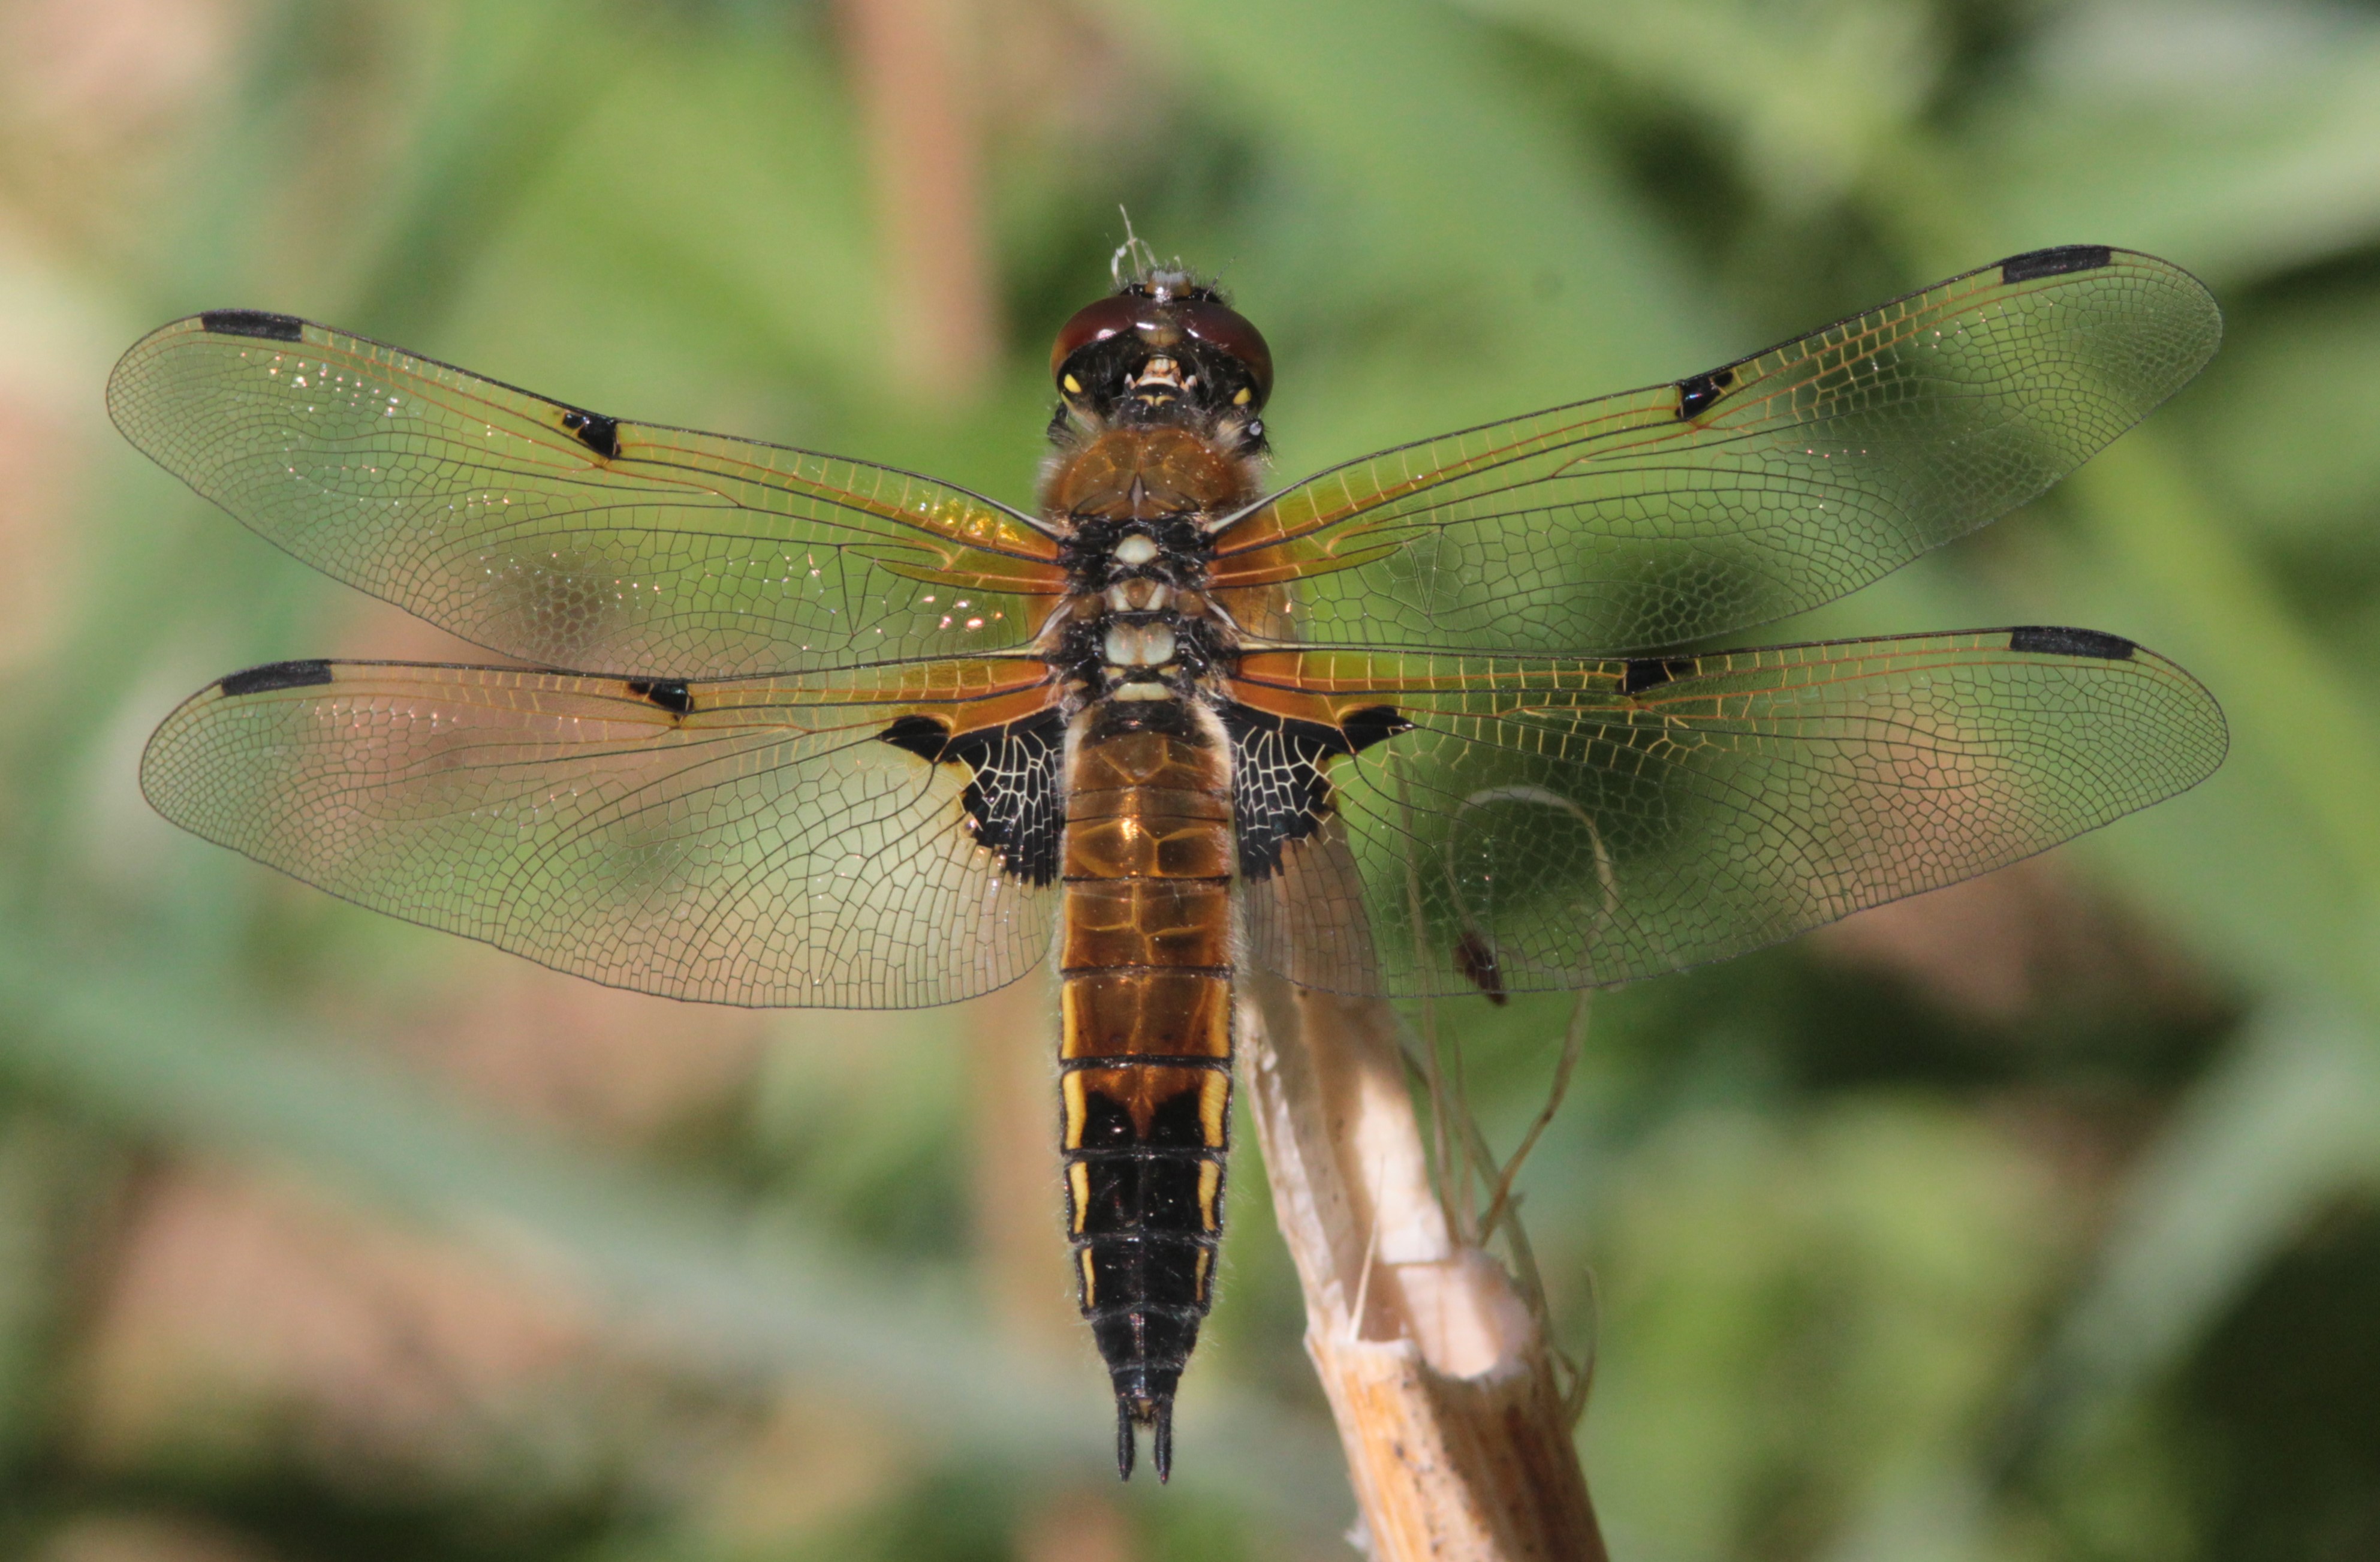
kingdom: Animalia
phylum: Arthropoda
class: Insecta
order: Odonata
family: Libellulidae
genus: Libellula
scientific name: Libellula quadrimaculata
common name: Four-spotted chaser
